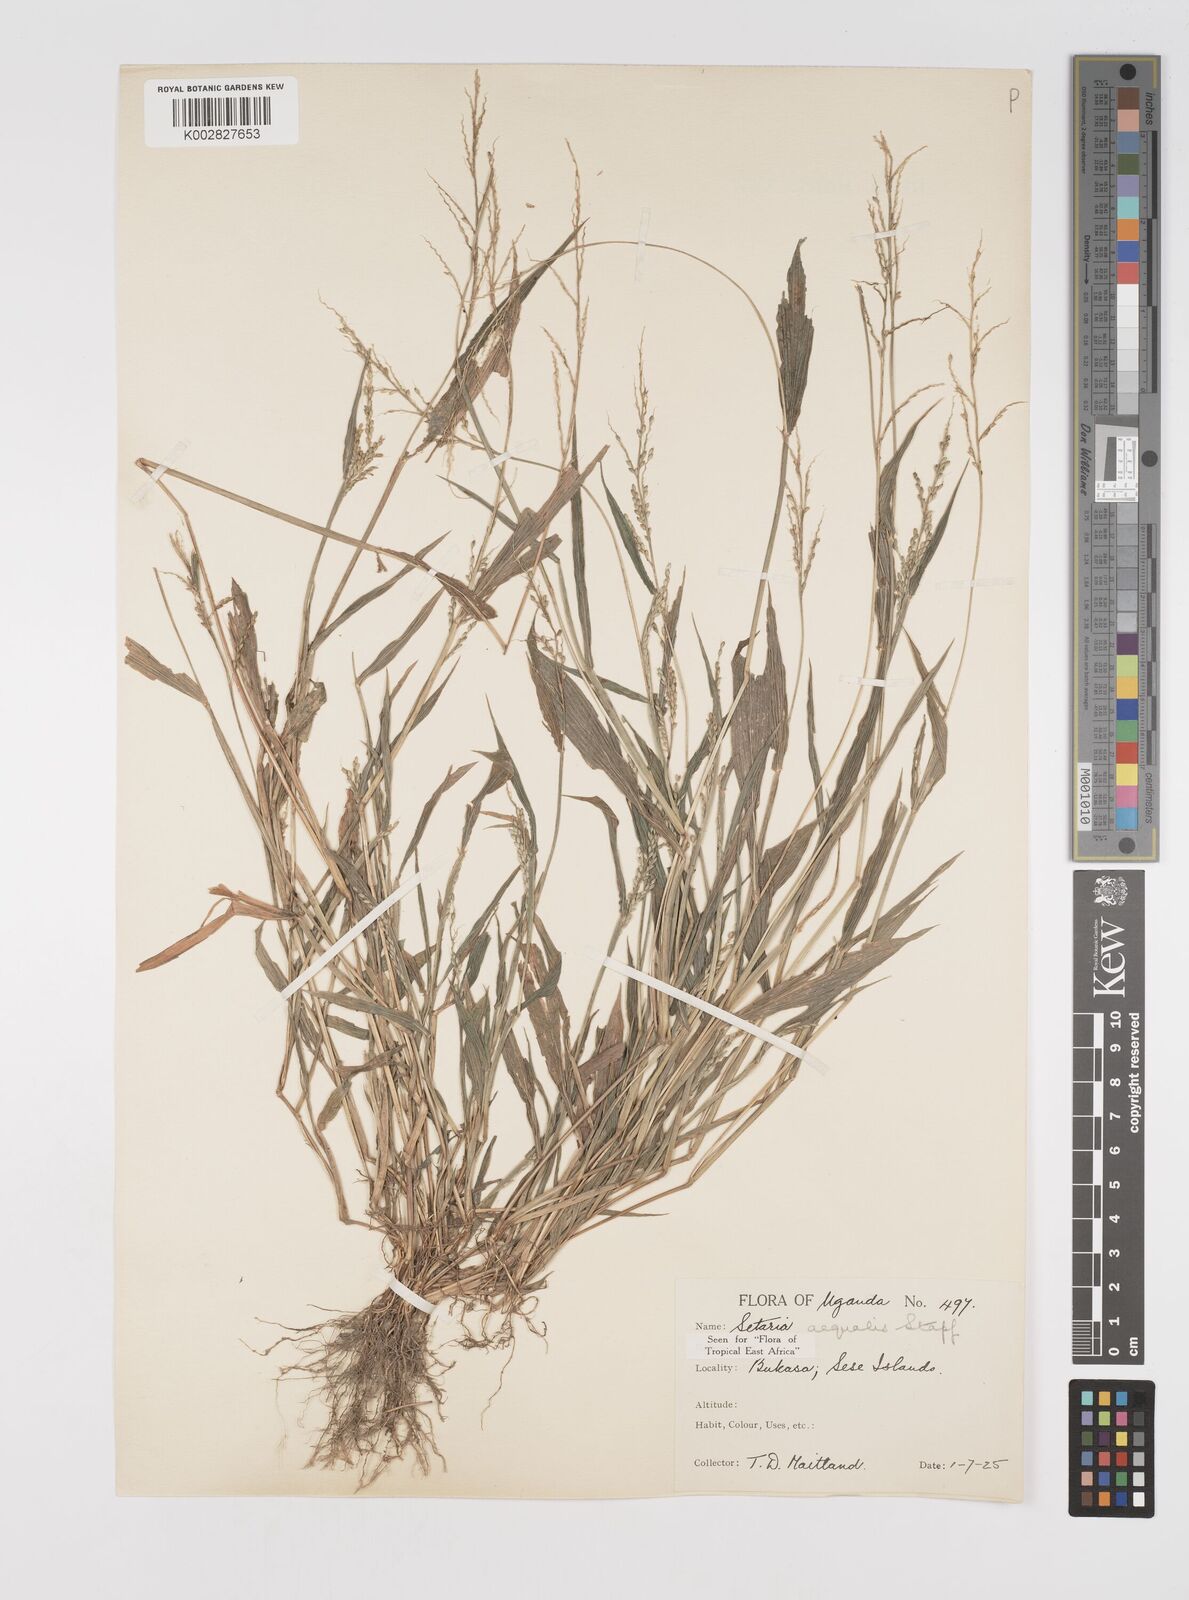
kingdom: Plantae
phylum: Tracheophyta
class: Liliopsida
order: Poales
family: Poaceae
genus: Setaria
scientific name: Setaria homonyma
